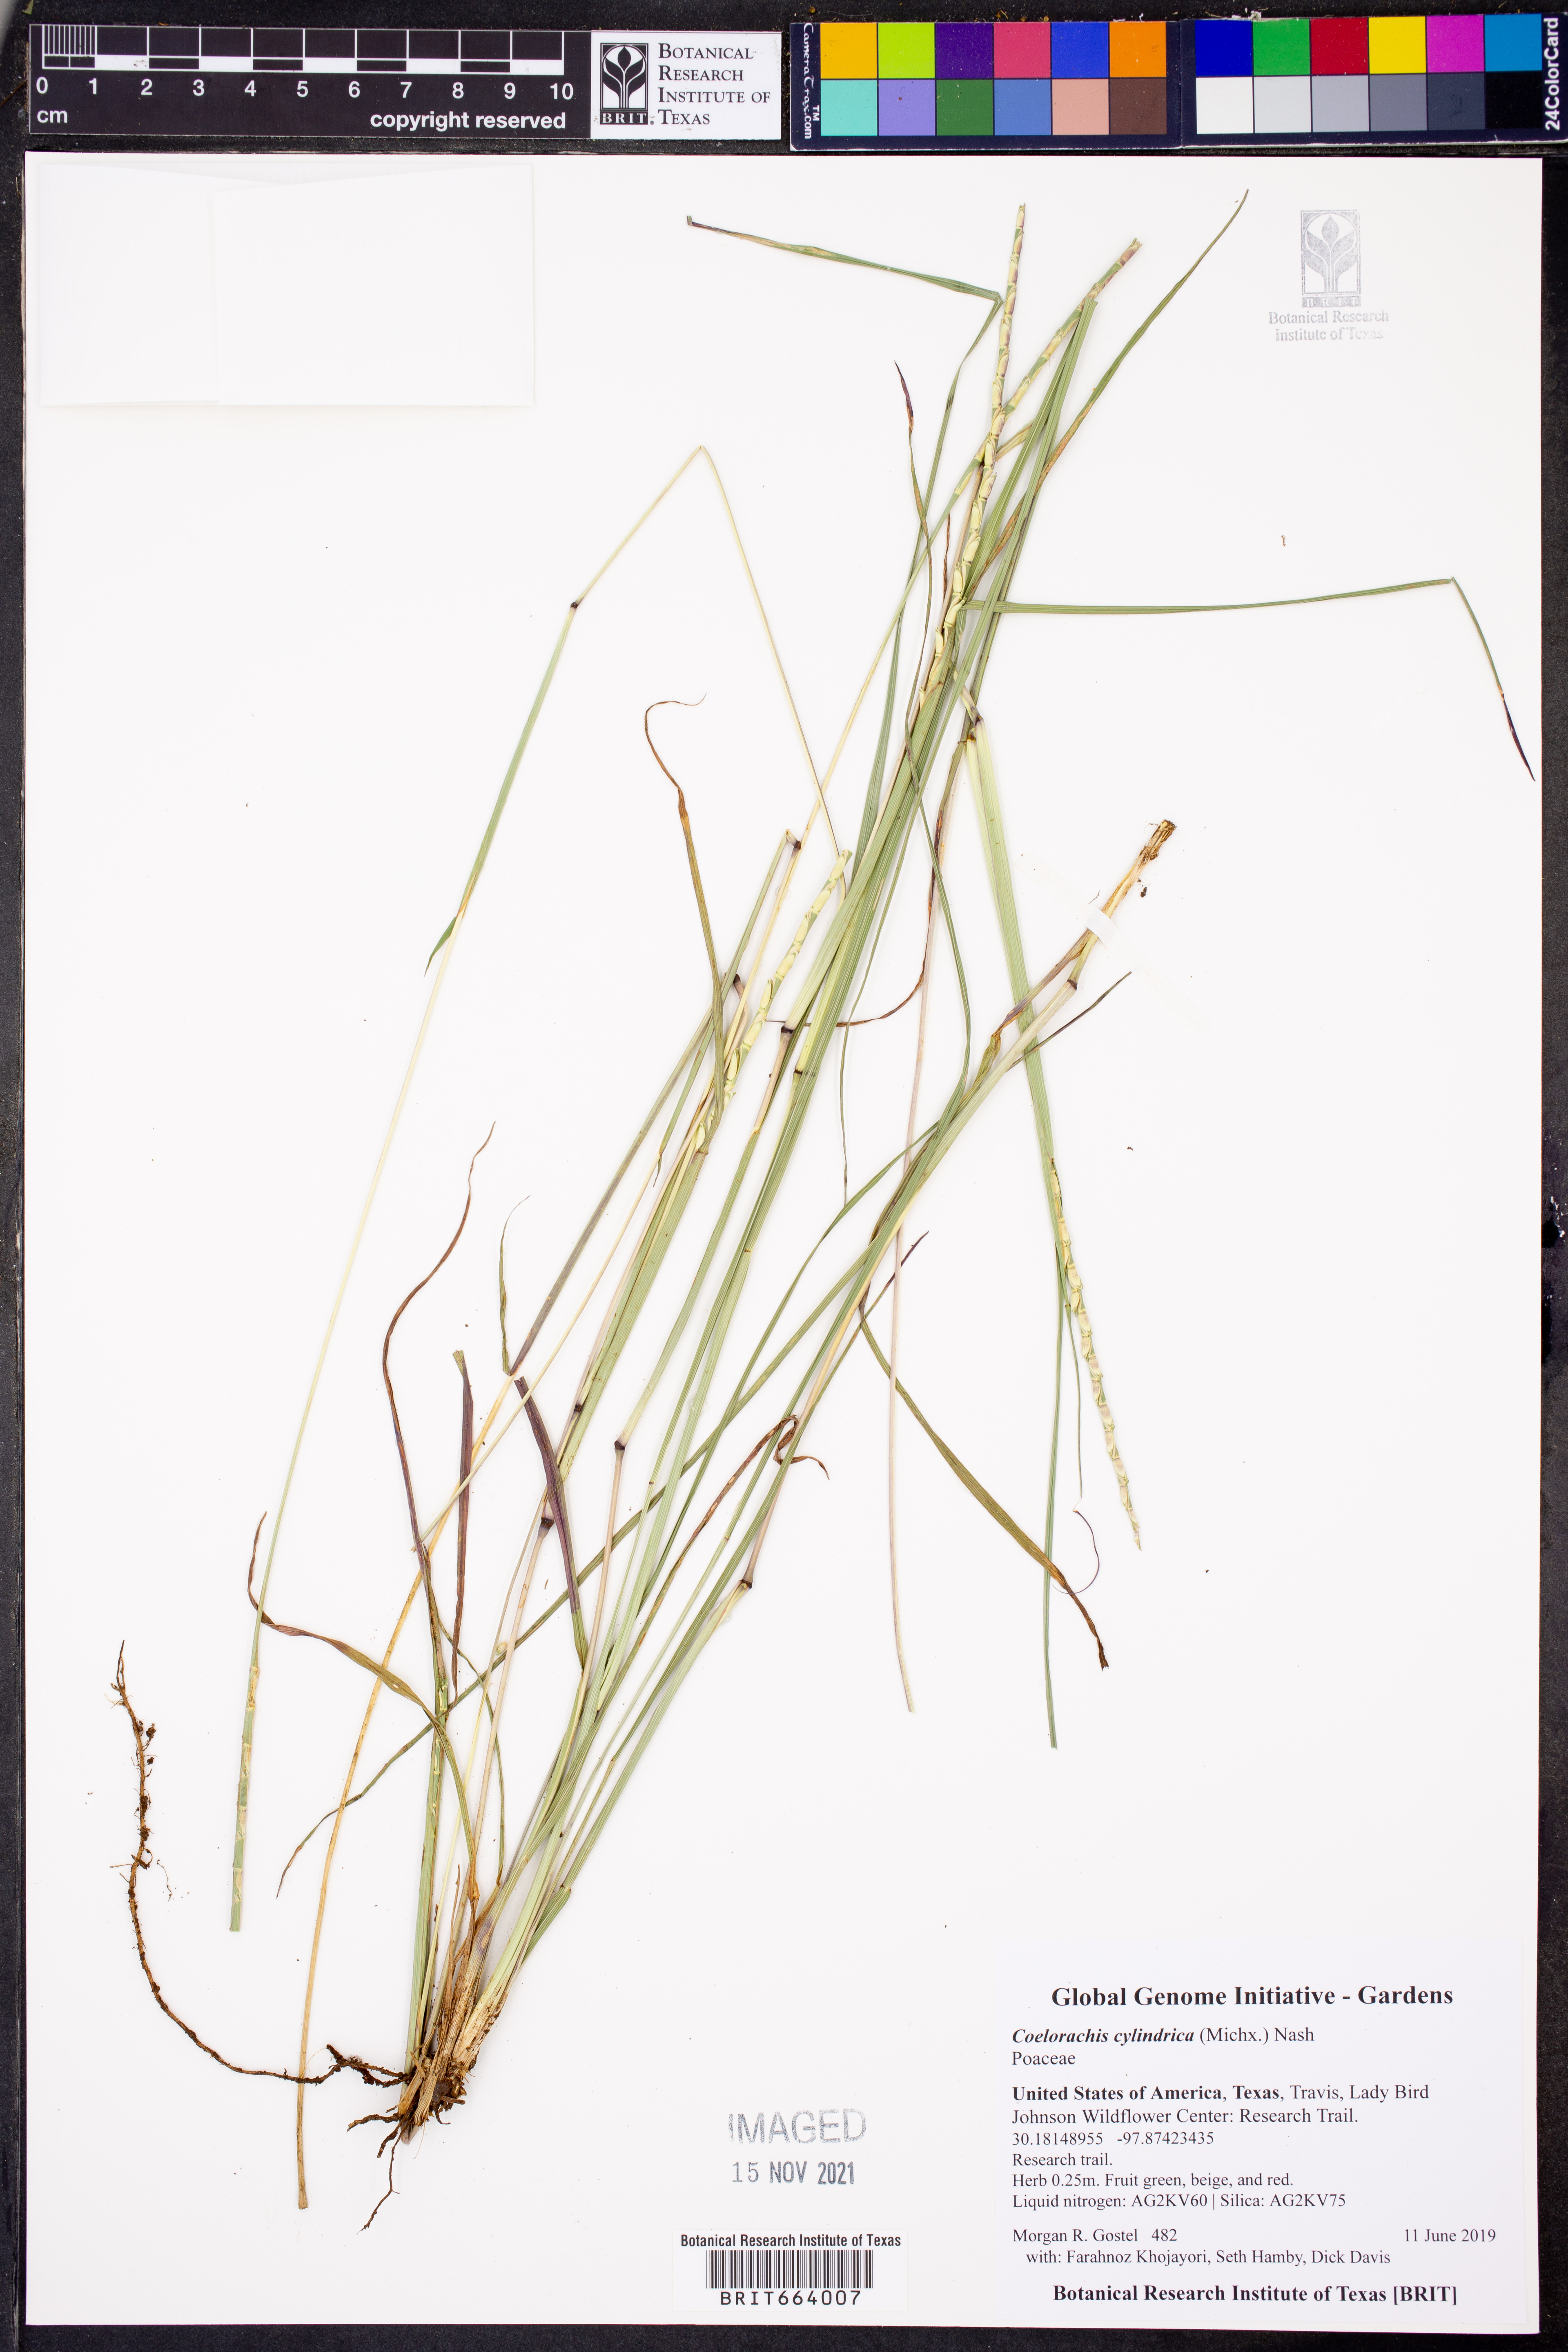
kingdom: Plantae
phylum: Tracheophyta
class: Liliopsida
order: Poales
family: Poaceae
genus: Rottboellia
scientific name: Rottboellia campestris
